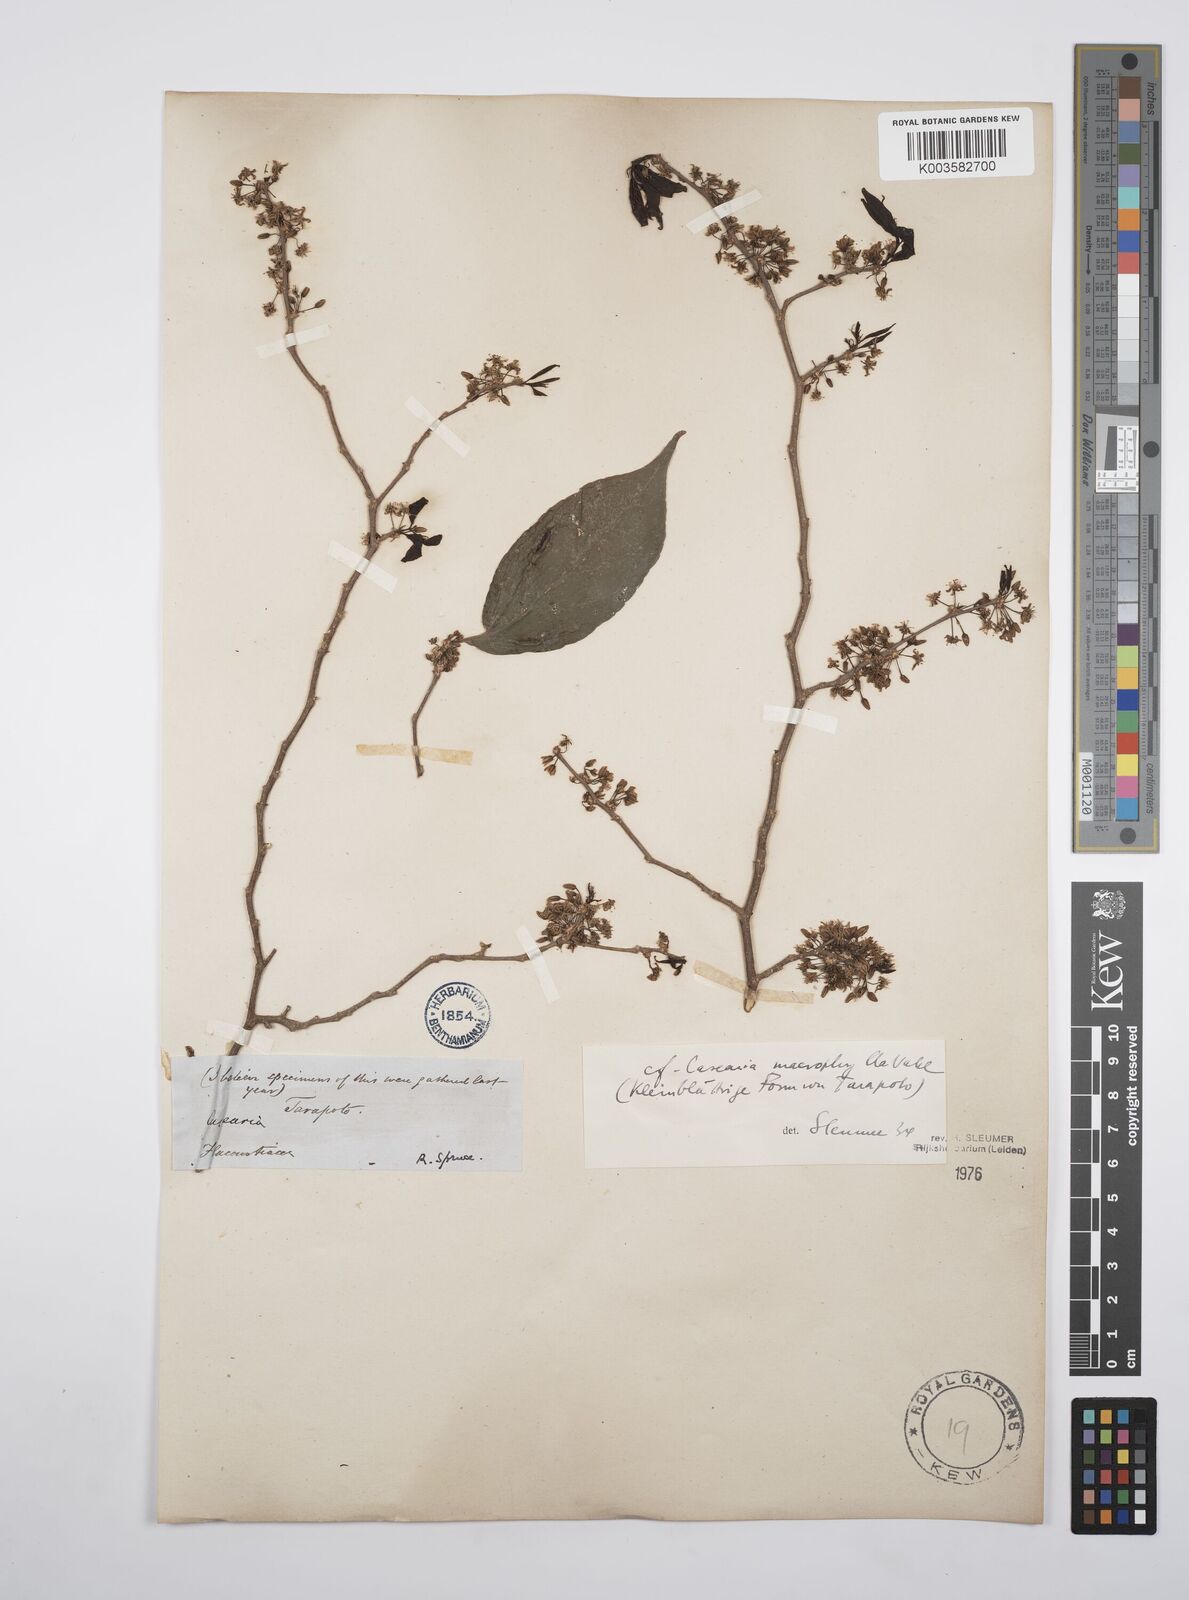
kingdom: Plantae
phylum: Tracheophyta
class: Magnoliopsida
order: Malpighiales
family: Salicaceae
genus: Casearia
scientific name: Casearia pitumba
